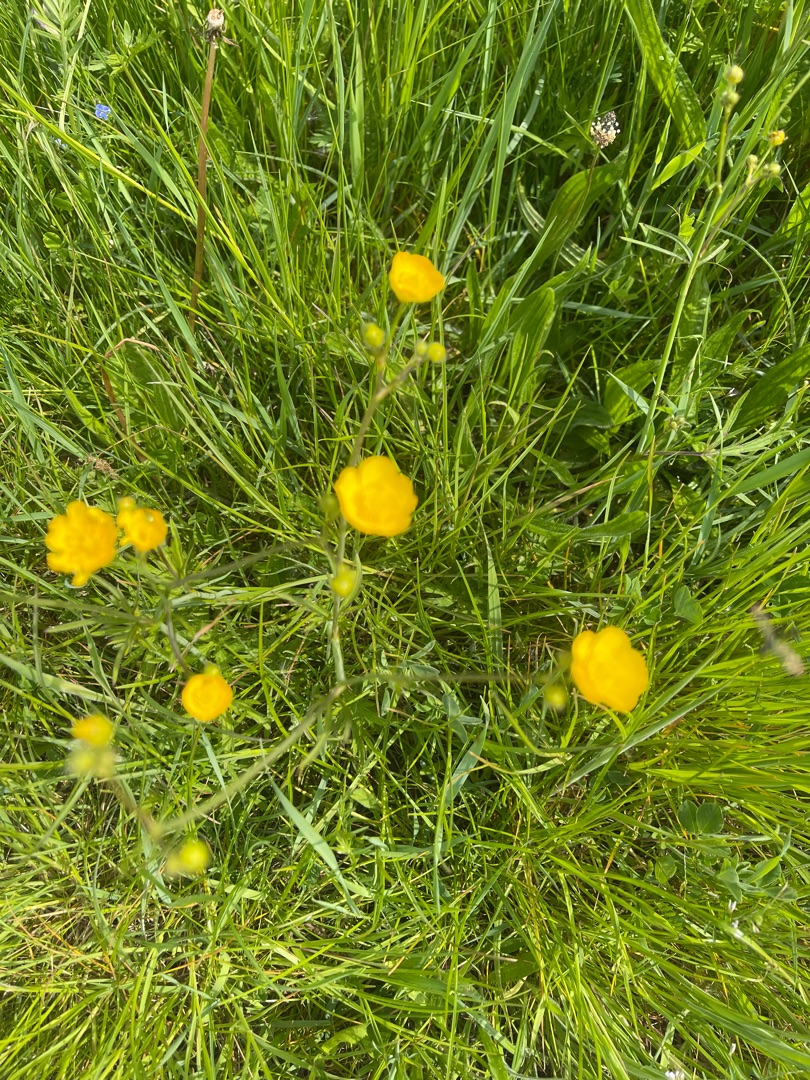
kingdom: Plantae
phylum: Tracheophyta
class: Magnoliopsida
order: Ranunculales
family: Ranunculaceae
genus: Ranunculus
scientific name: Ranunculus acris
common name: Bidende ranunkel
